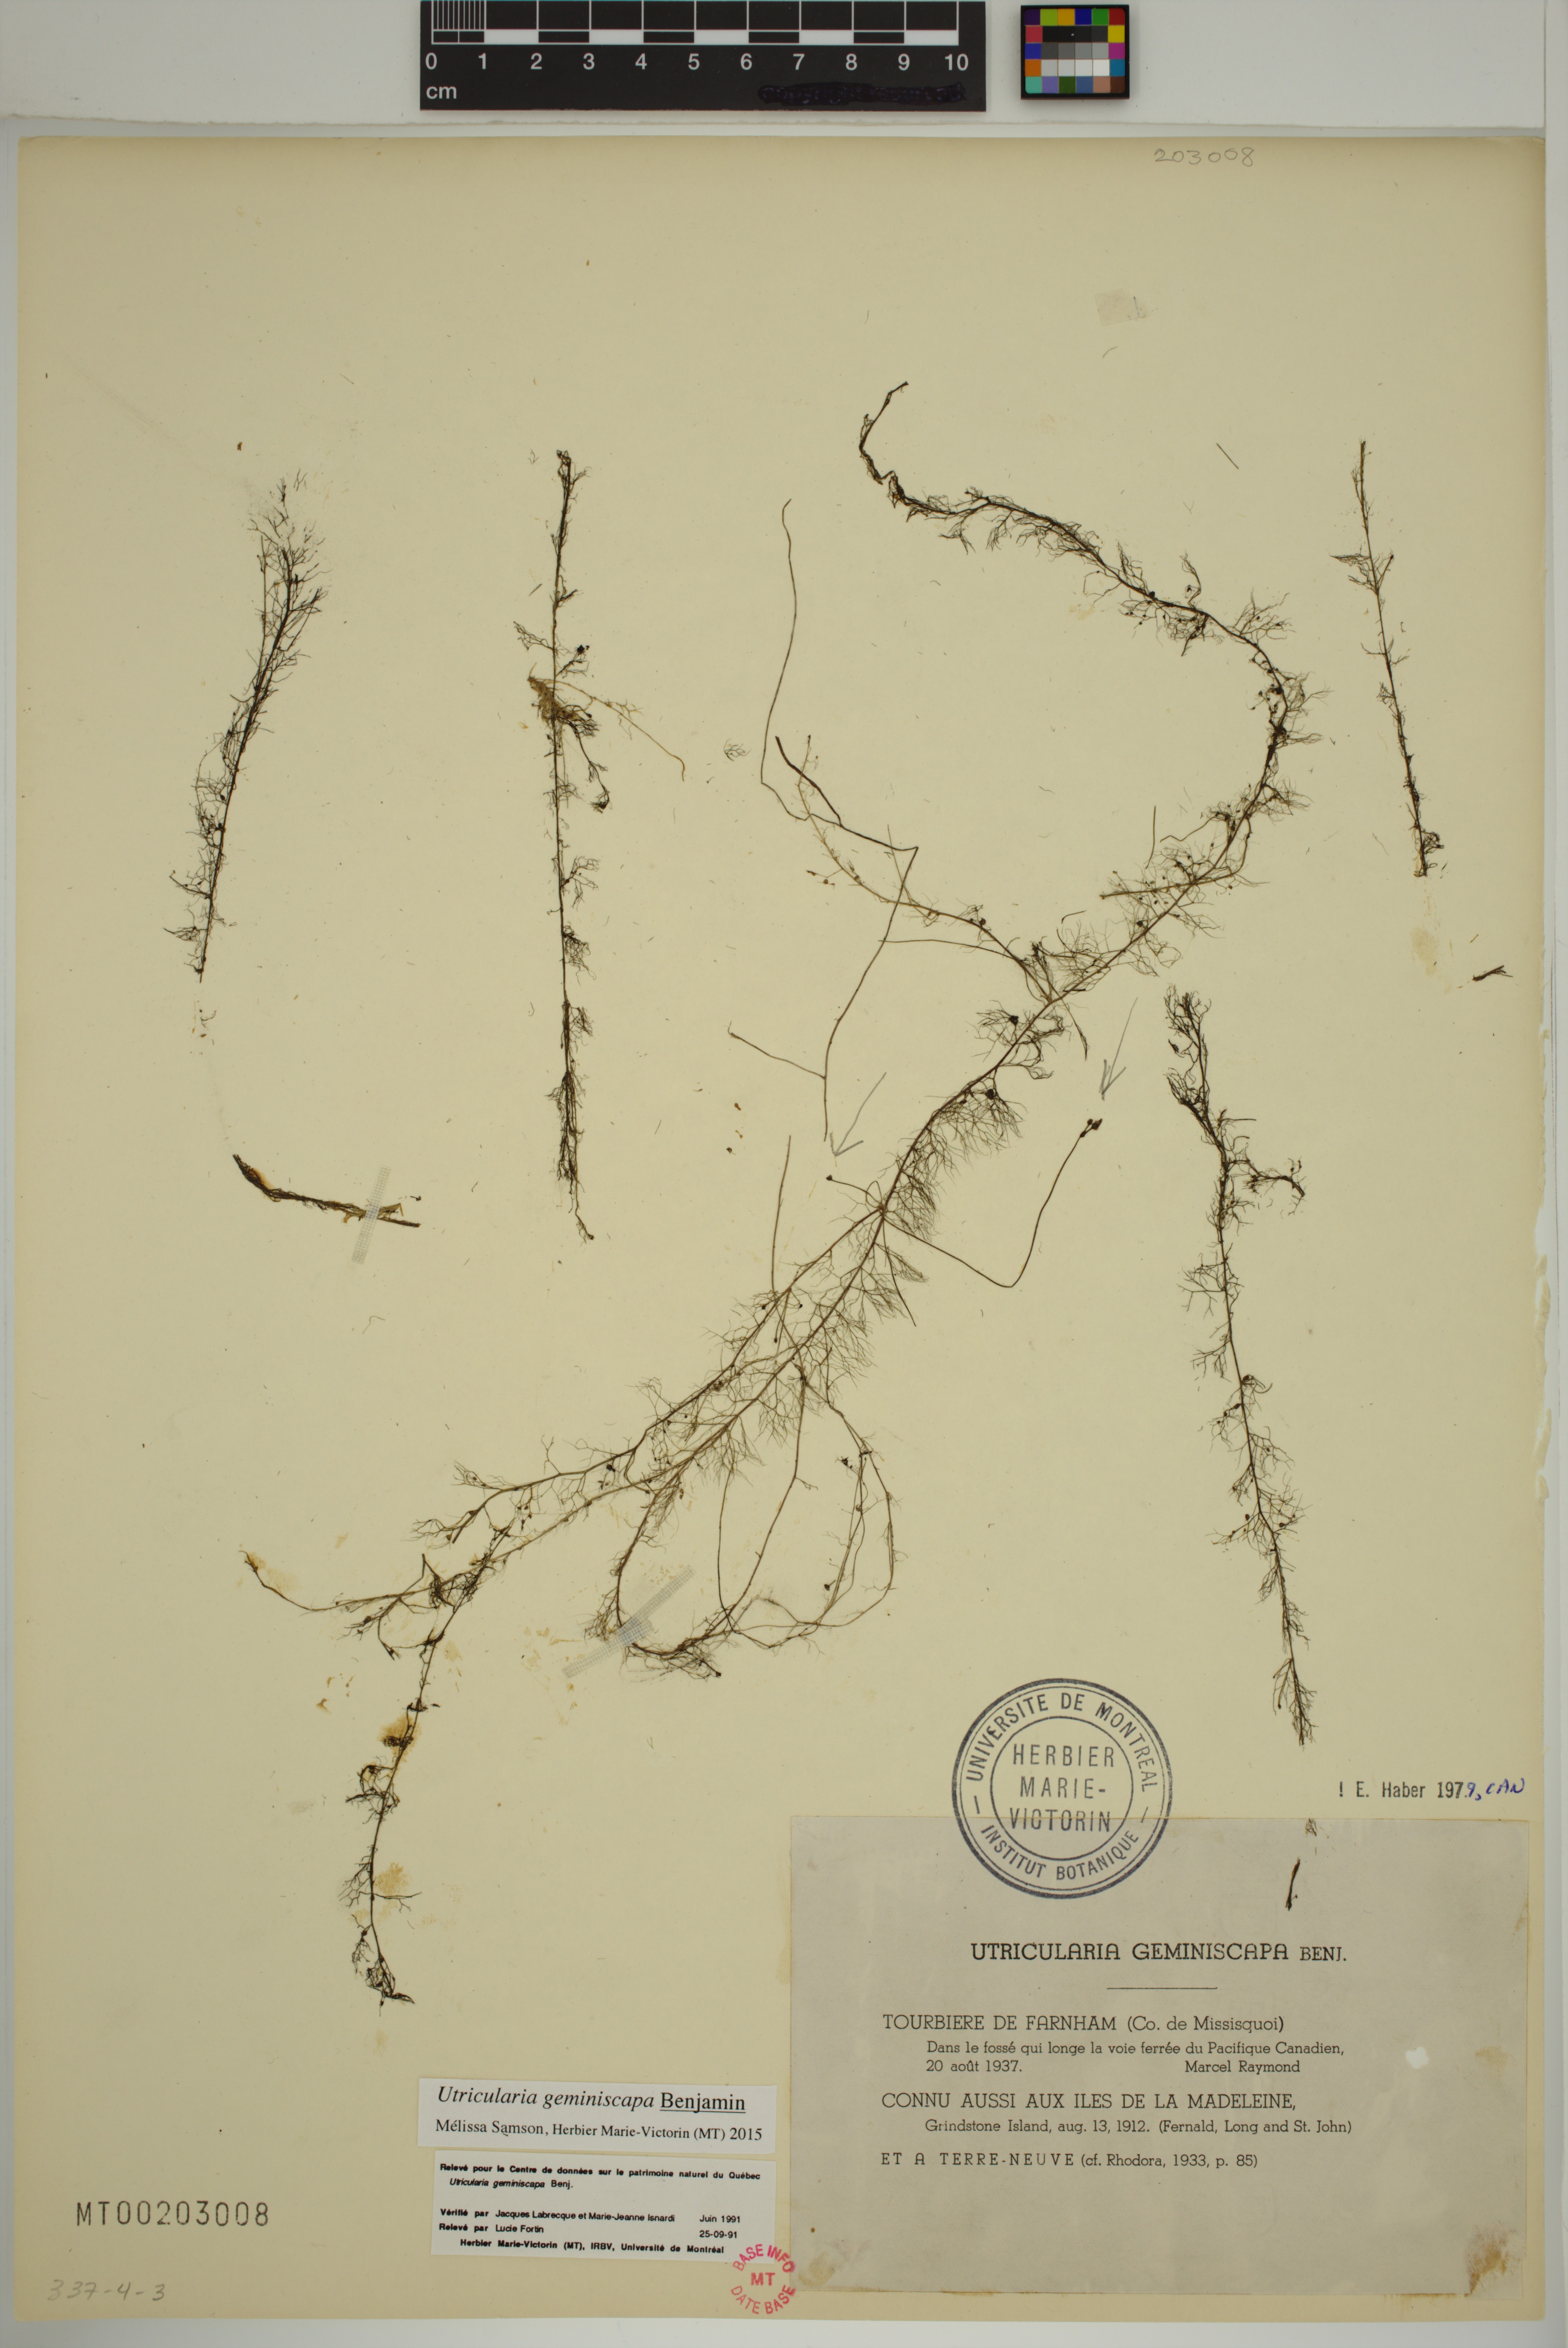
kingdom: Plantae
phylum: Tracheophyta
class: Magnoliopsida
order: Lamiales
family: Lentibulariaceae
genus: Utricularia
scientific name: Utricularia geminiscapa
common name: Hidden-fruit bladderwort
